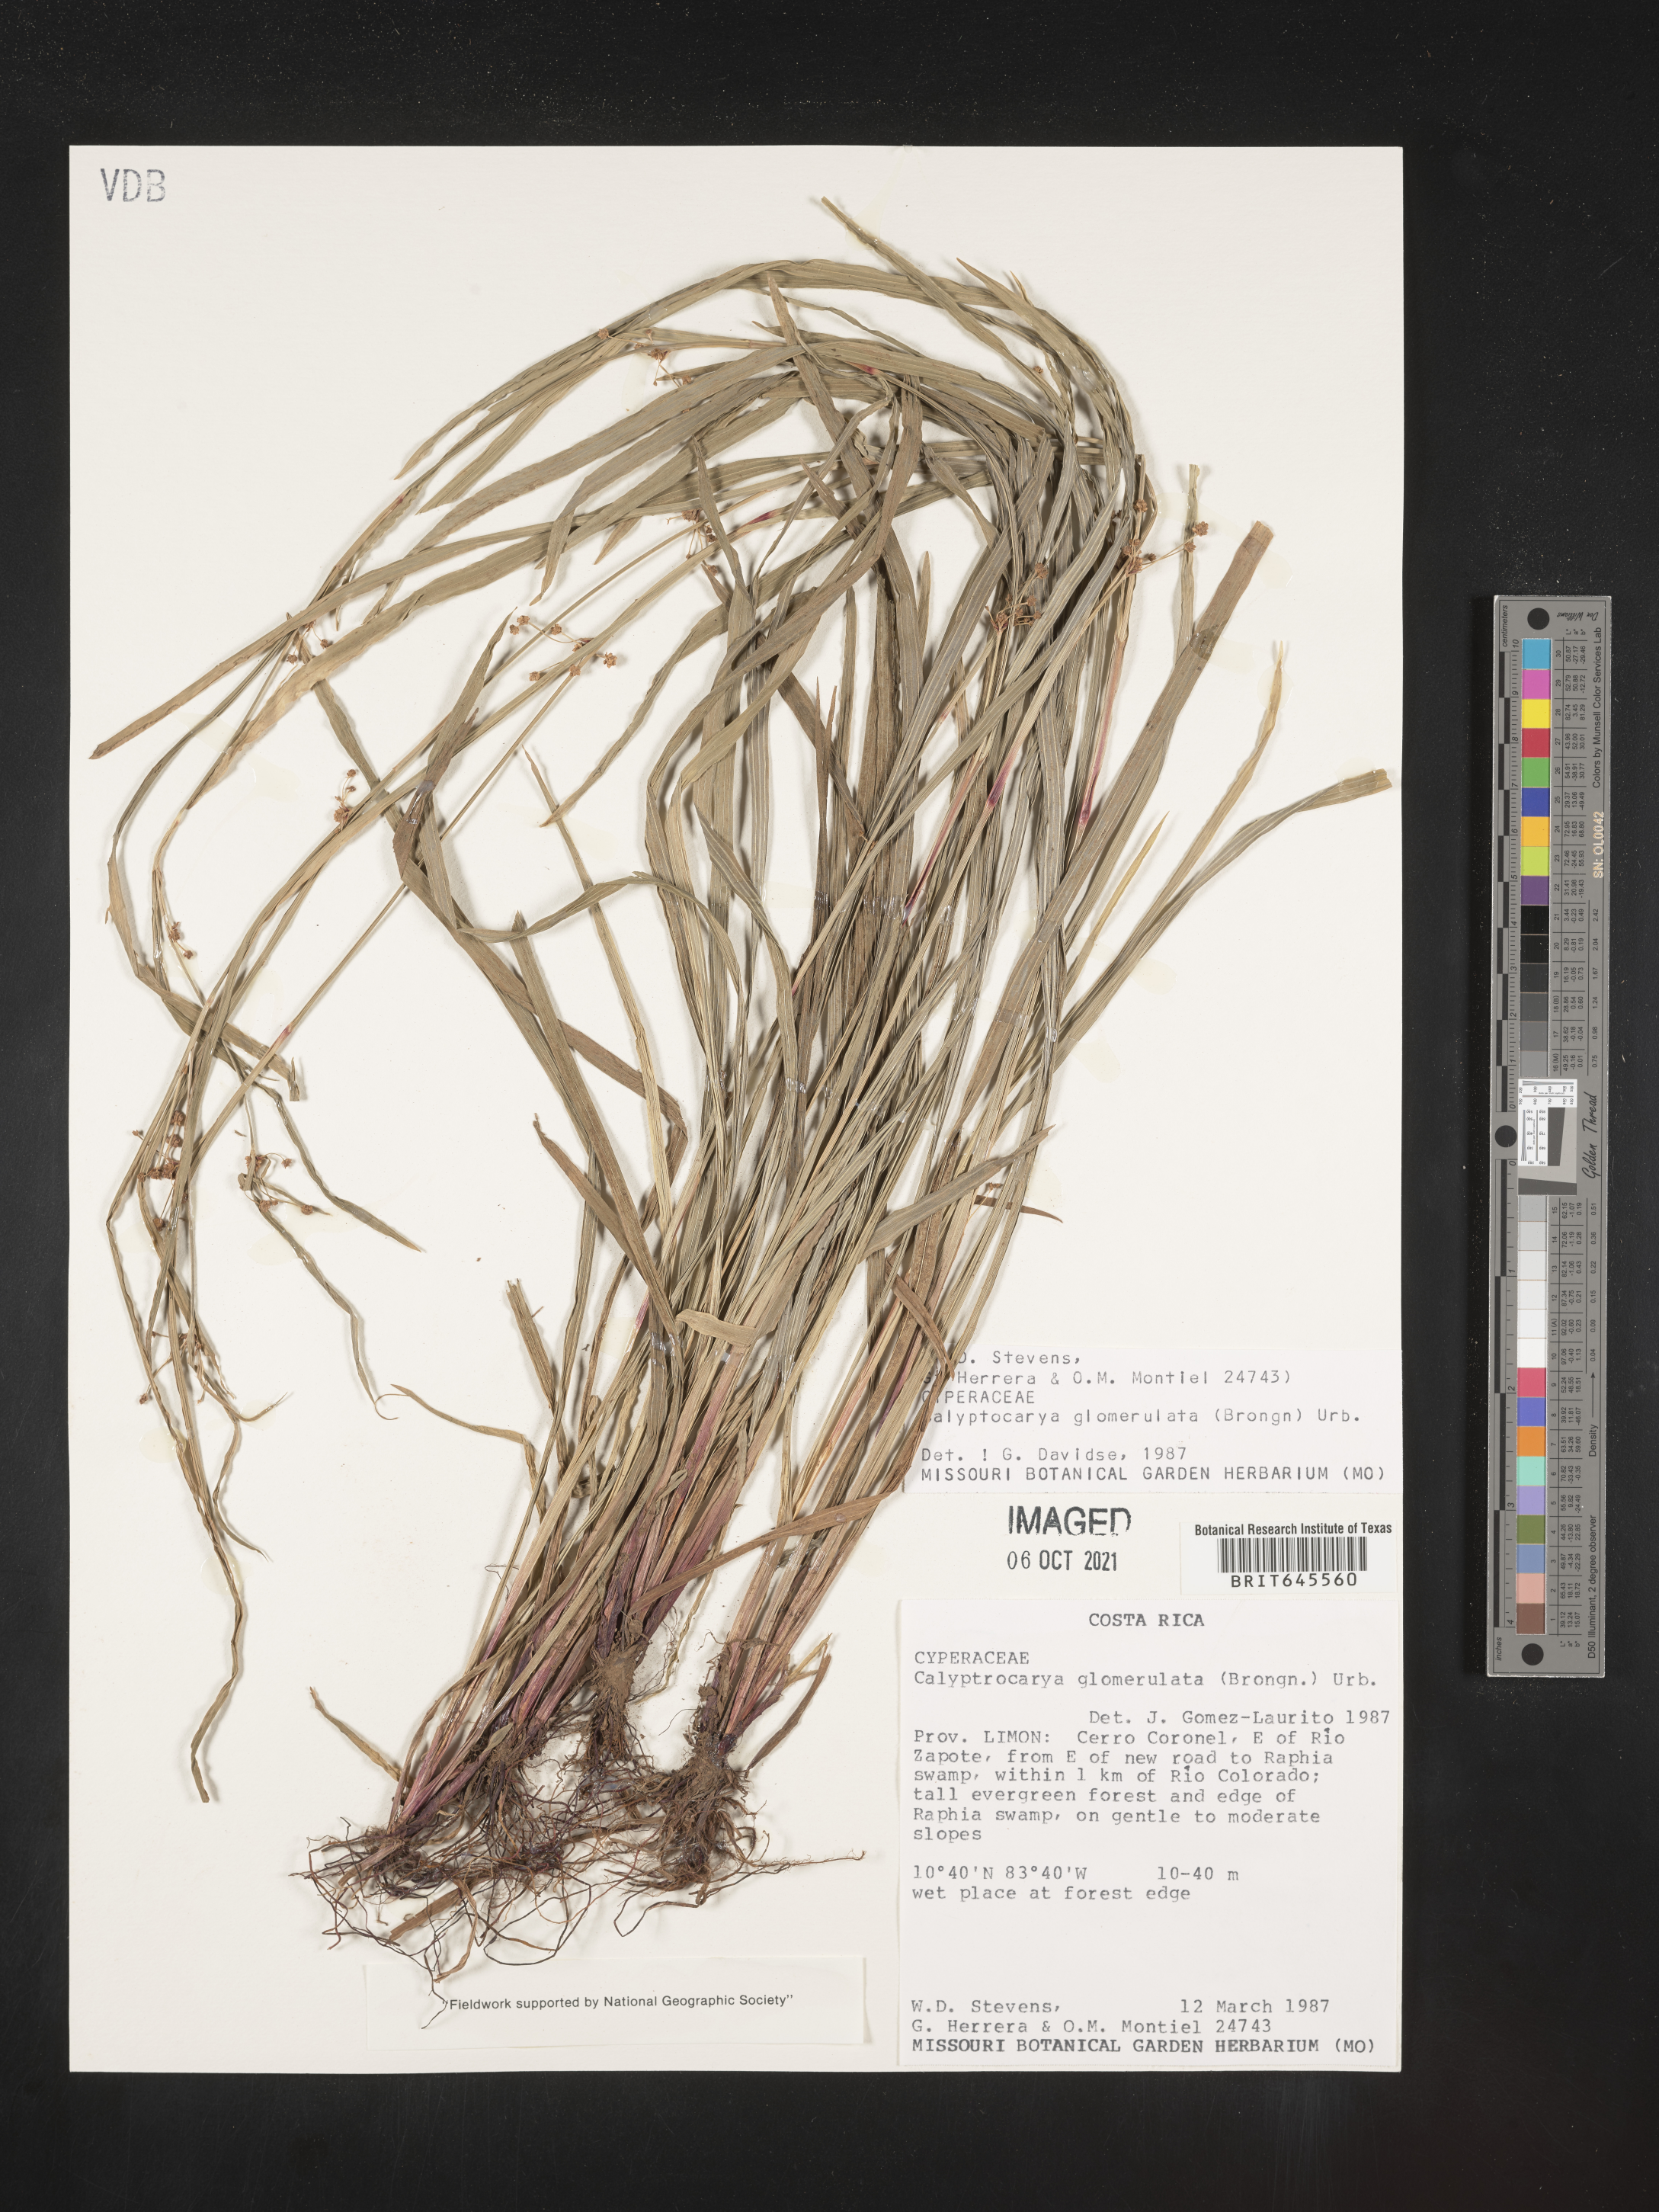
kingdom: Plantae
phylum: Tracheophyta
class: Liliopsida
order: Poales
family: Cyperaceae
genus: Calyptrocarya
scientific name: Calyptrocarya glomerulata
